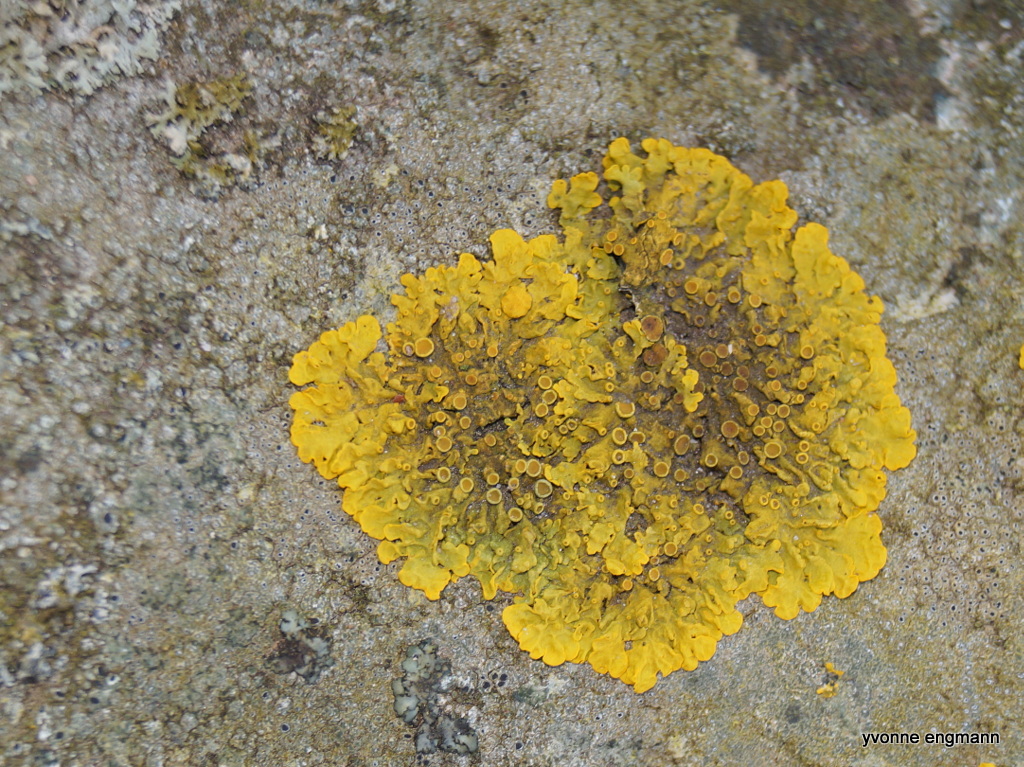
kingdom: Fungi
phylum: Ascomycota
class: Lecanoromycetes
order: Teloschistales
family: Teloschistaceae
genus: Xanthoria
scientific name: Xanthoria parietina
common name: almindelig væggelav
